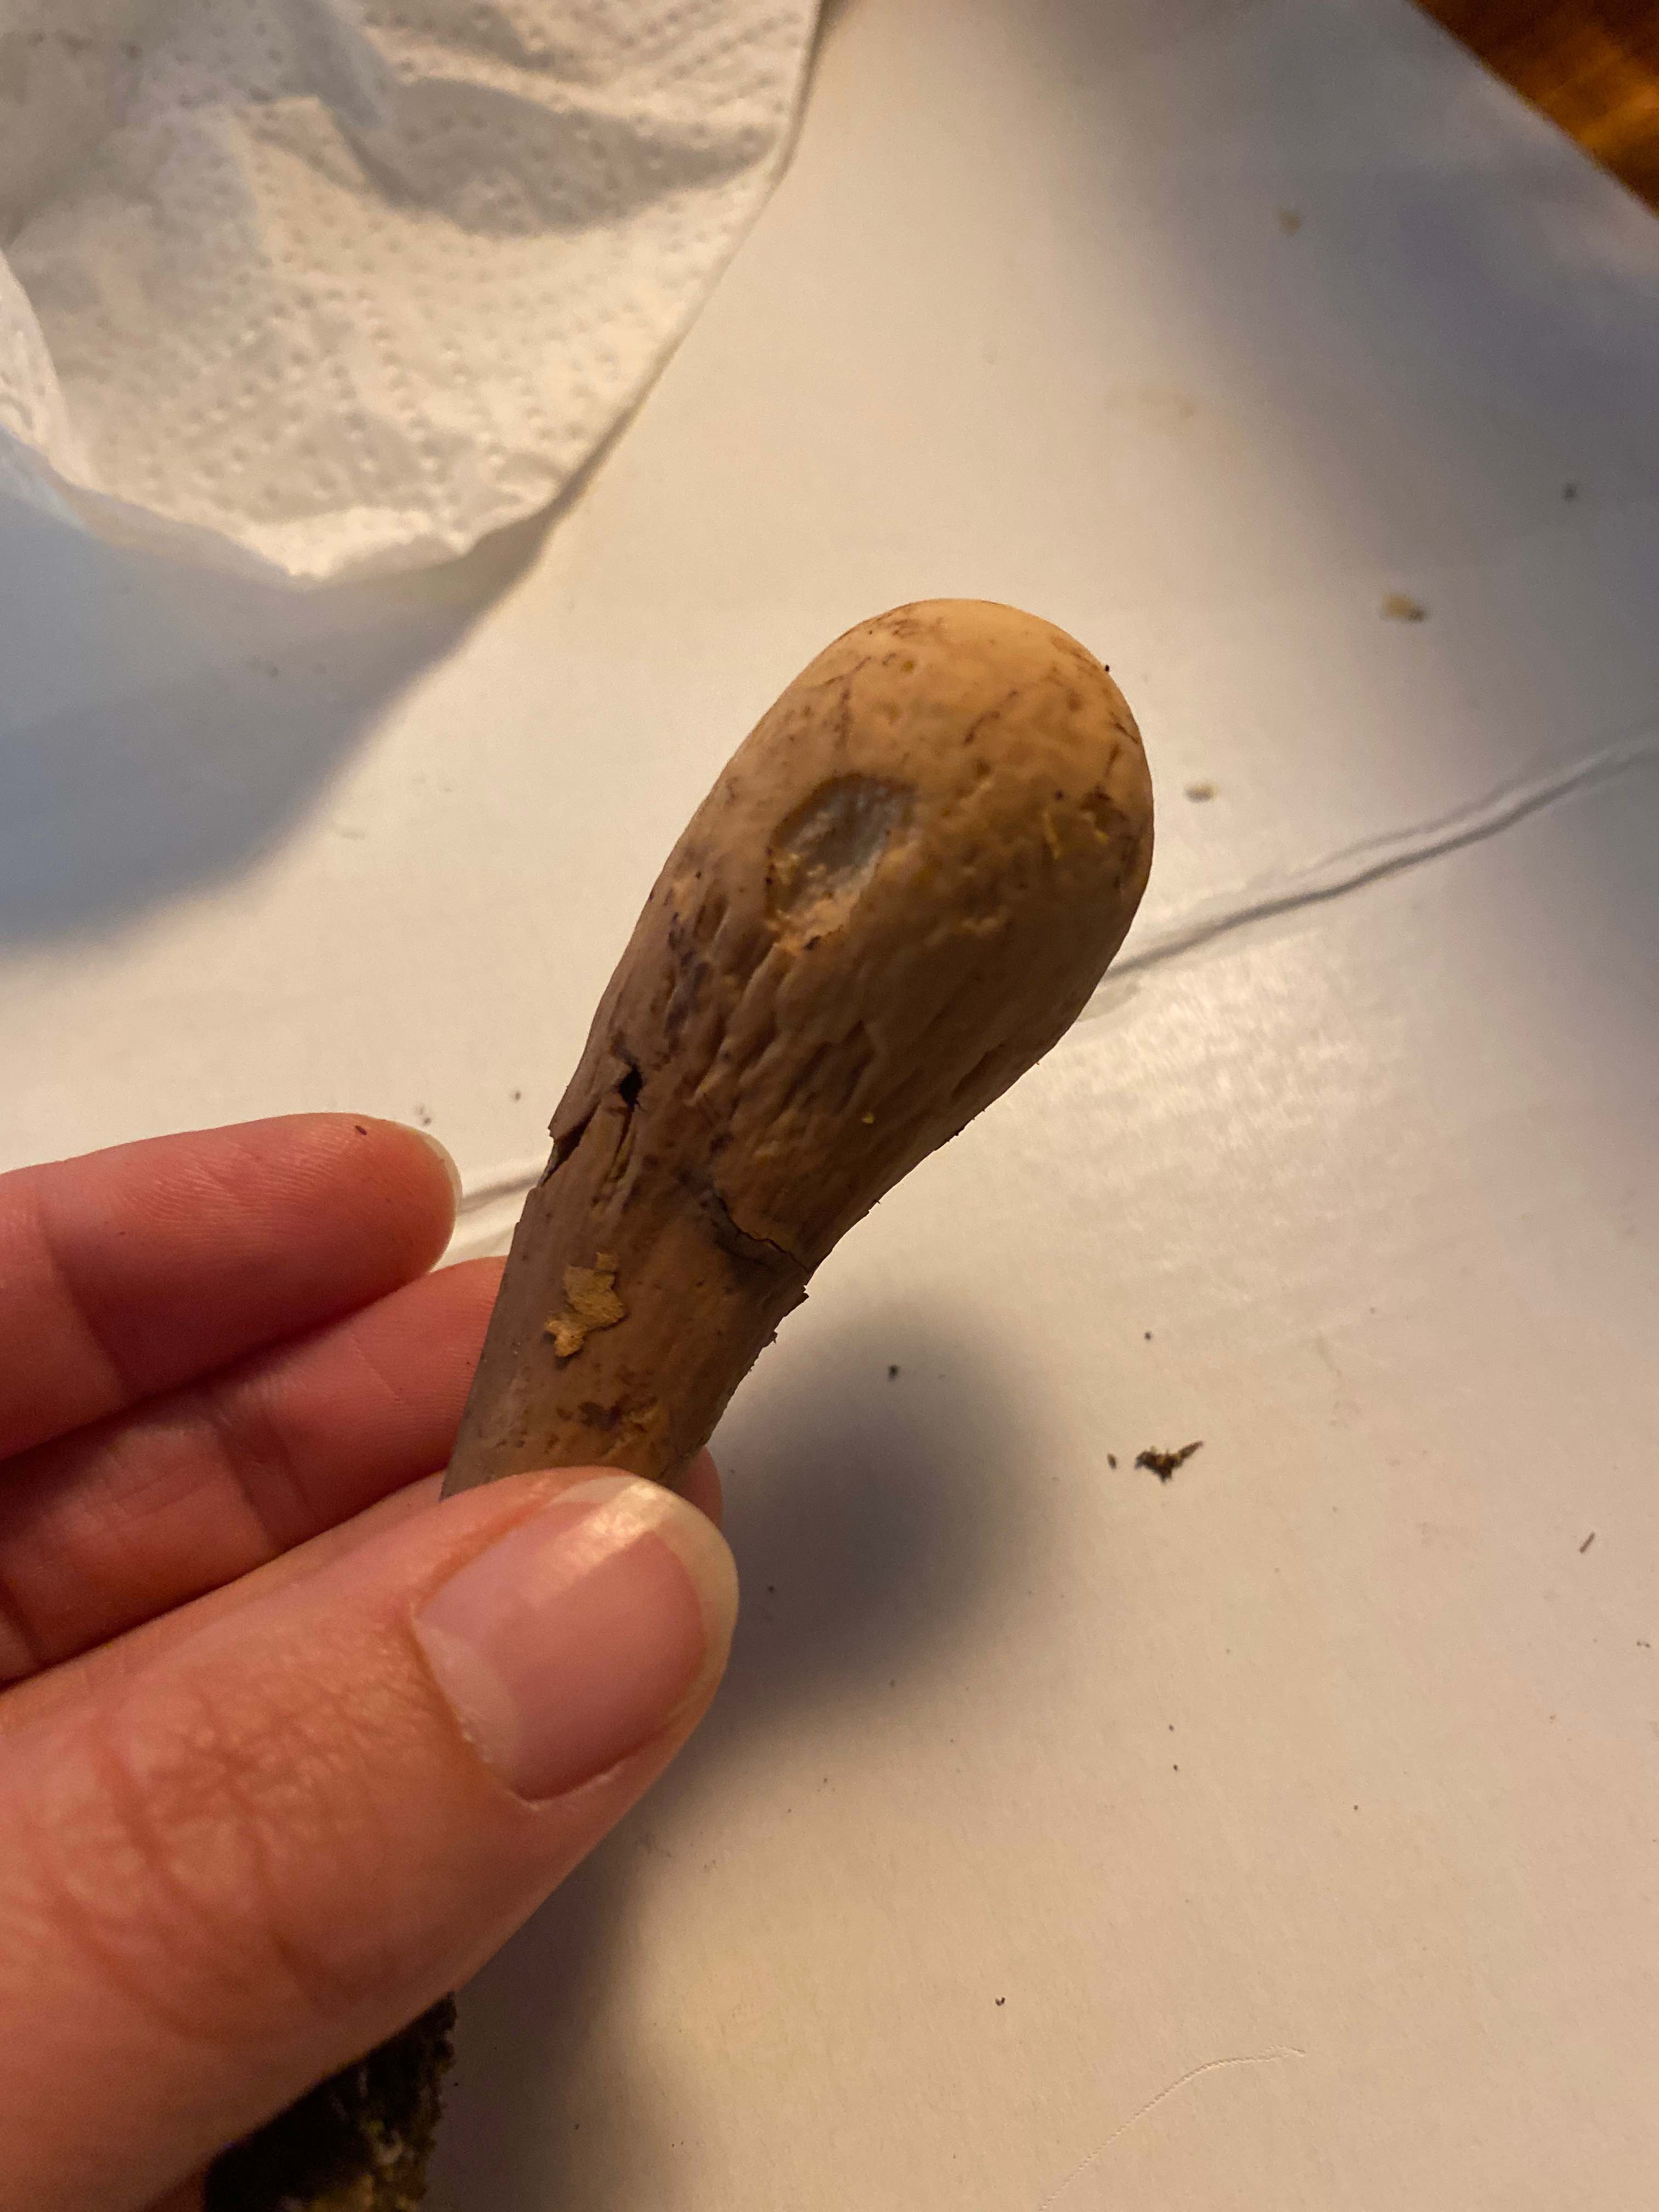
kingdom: Fungi
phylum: Basidiomycota
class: Agaricomycetes
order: Gomphales
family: Clavariadelphaceae
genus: Clavariadelphus
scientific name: Clavariadelphus pistillaris
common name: herkules-kæmpekølle
